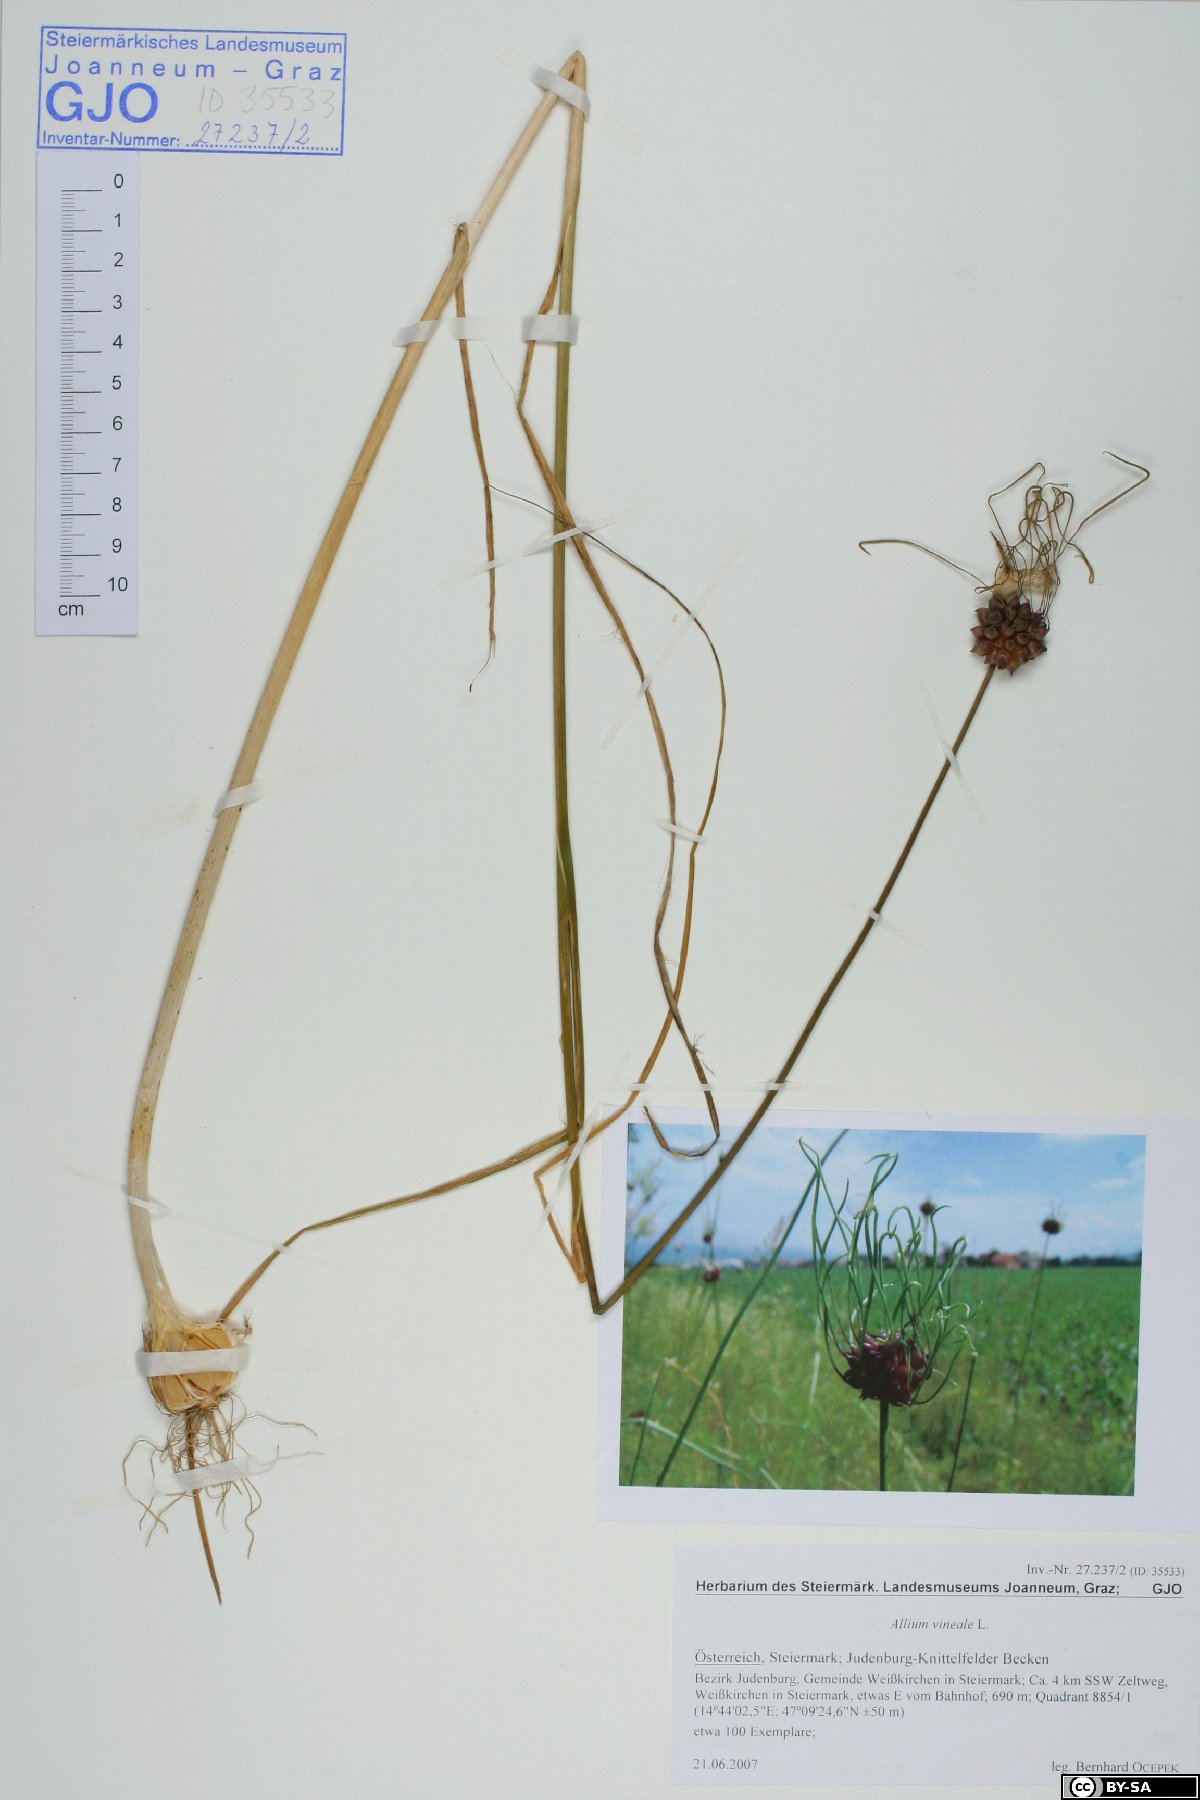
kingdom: Plantae
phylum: Tracheophyta
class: Liliopsida
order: Asparagales
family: Amaryllidaceae
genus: Allium
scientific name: Allium vineale
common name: Crow garlic
